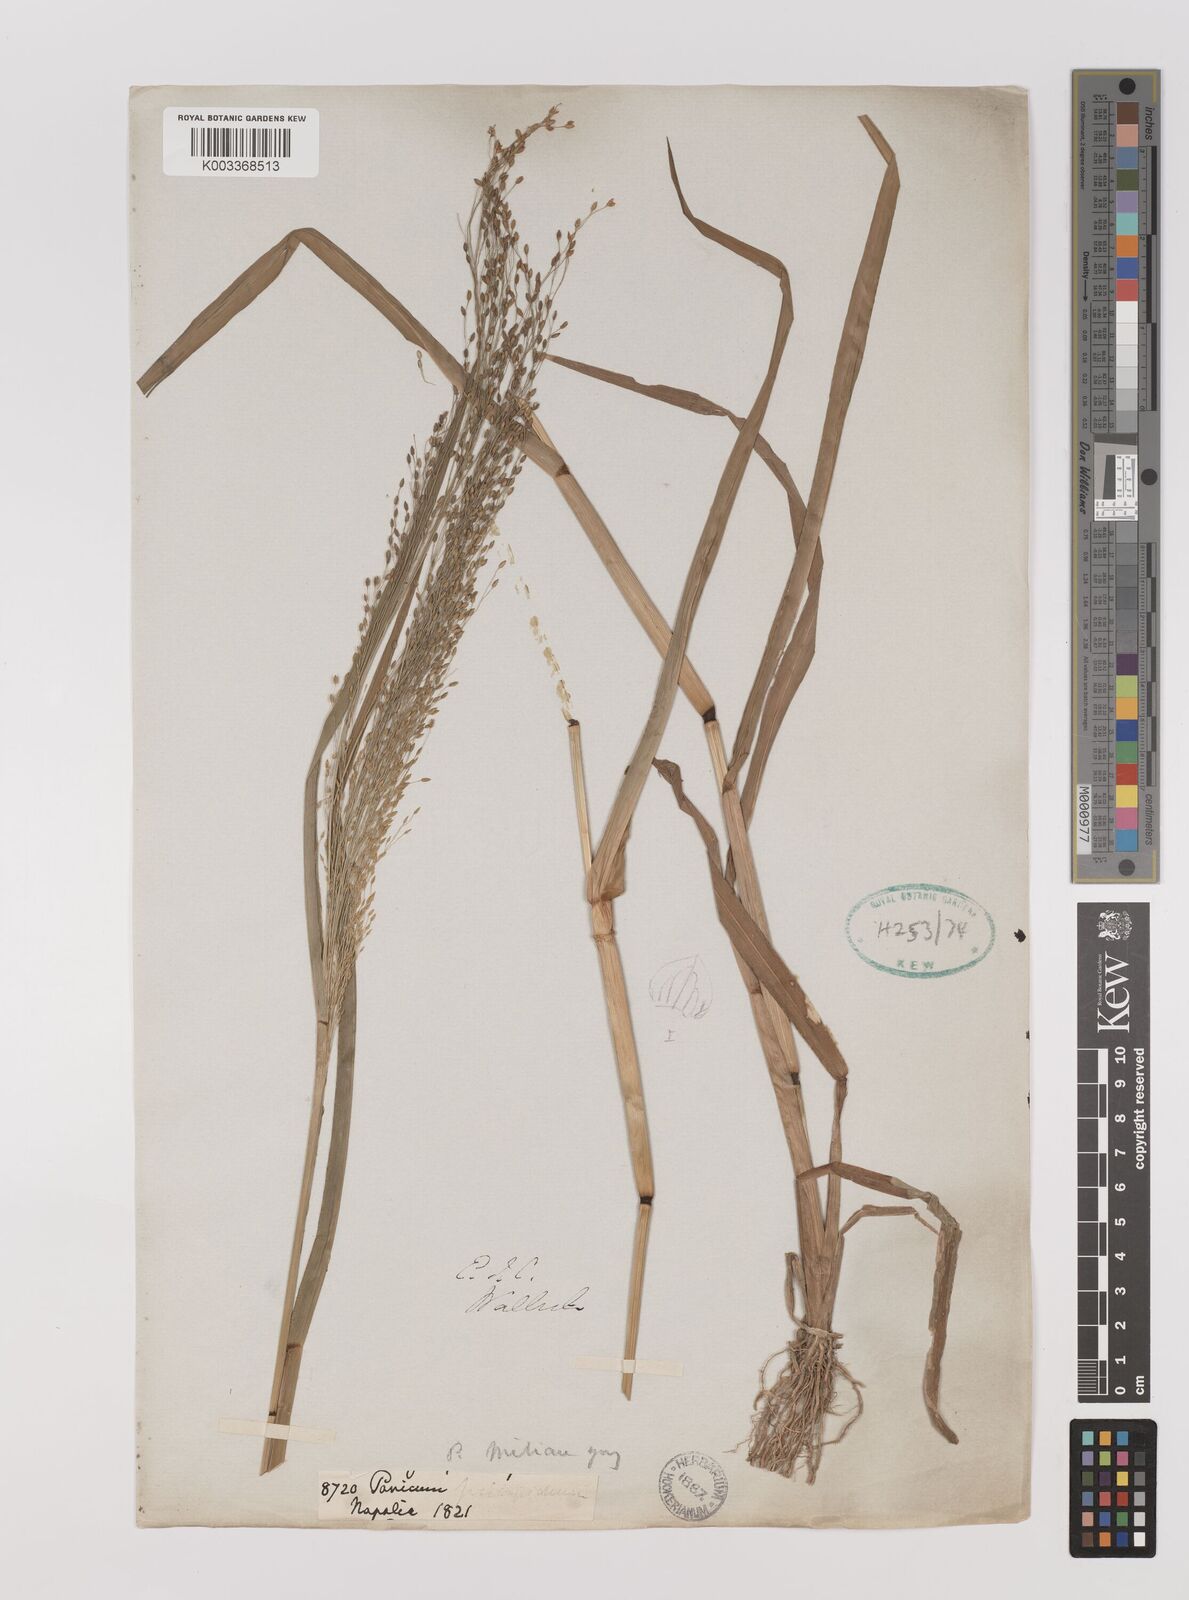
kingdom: Plantae
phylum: Tracheophyta
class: Liliopsida
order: Poales
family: Poaceae
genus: Panicum
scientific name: Panicum sumatrense
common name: Little millet
